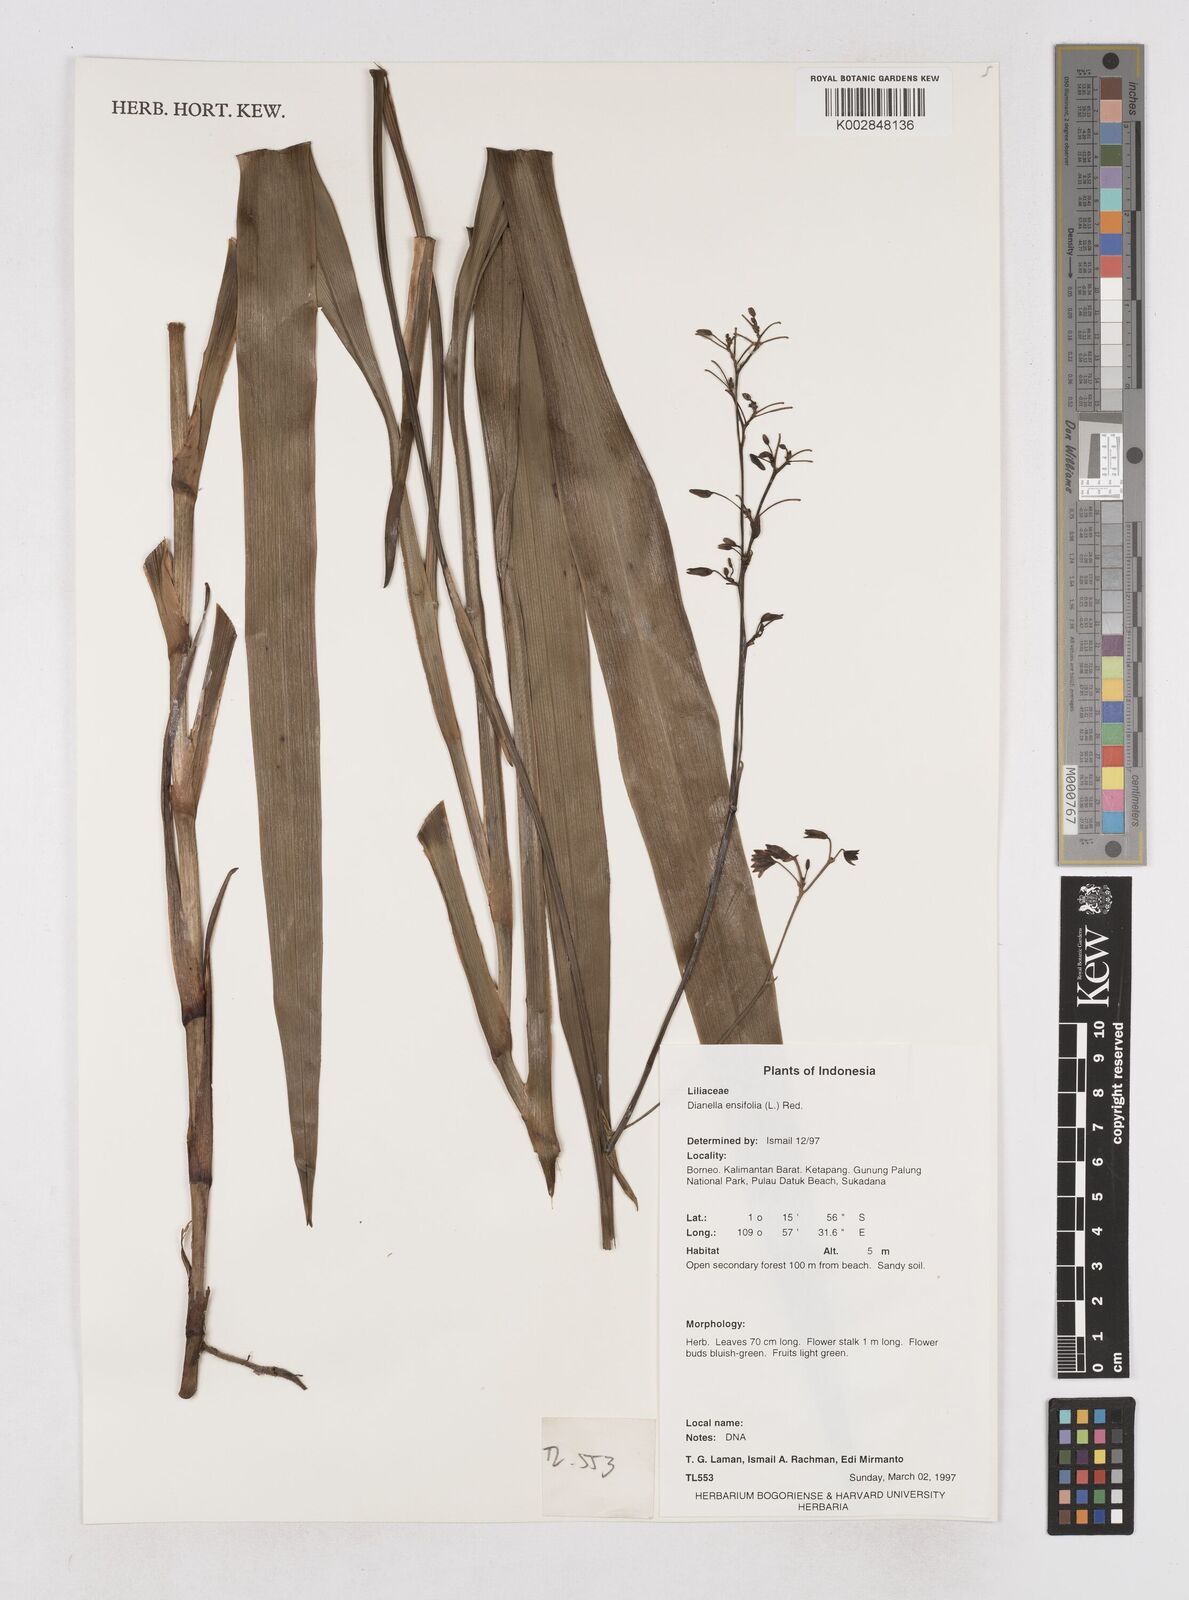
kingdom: Plantae
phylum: Tracheophyta
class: Liliopsida
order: Asparagales
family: Asphodelaceae
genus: Dianella
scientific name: Dianella ensifolia
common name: New zealand lilyplant
